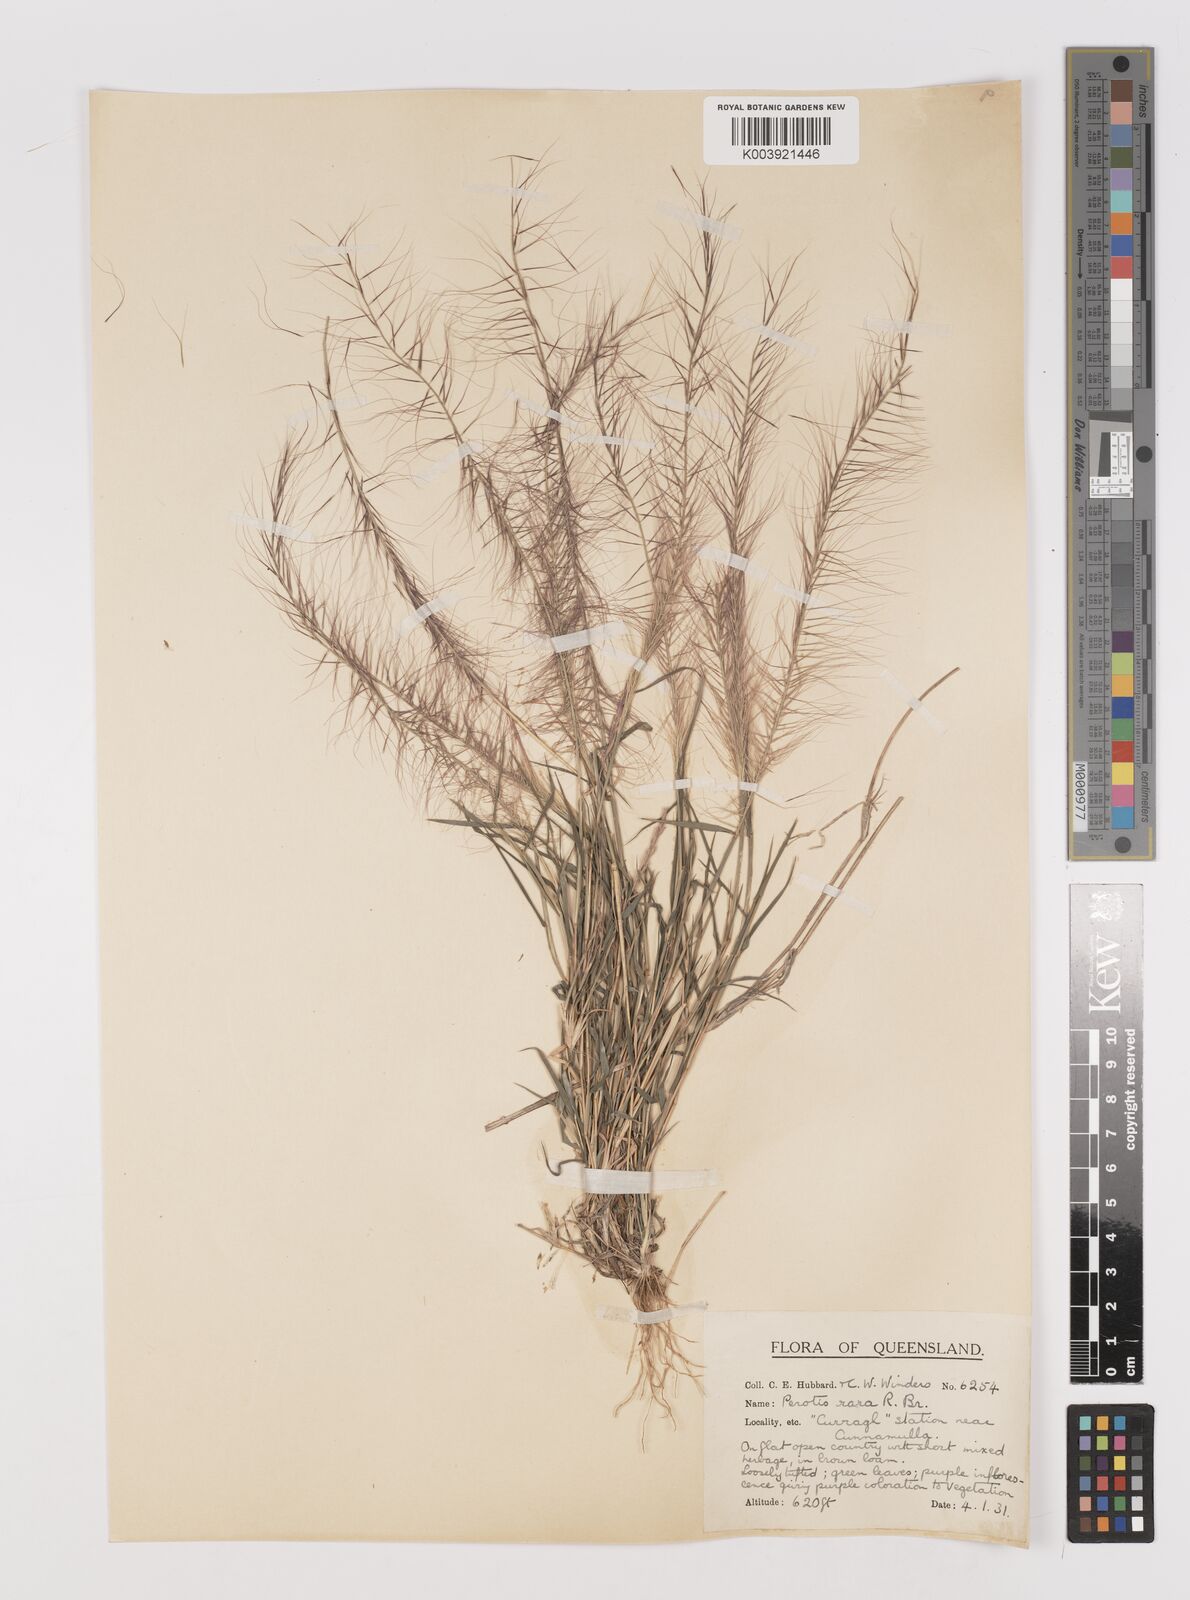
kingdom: Plantae
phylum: Tracheophyta
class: Liliopsida
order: Poales
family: Poaceae
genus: Perotis
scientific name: Perotis rara
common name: Comet grass
